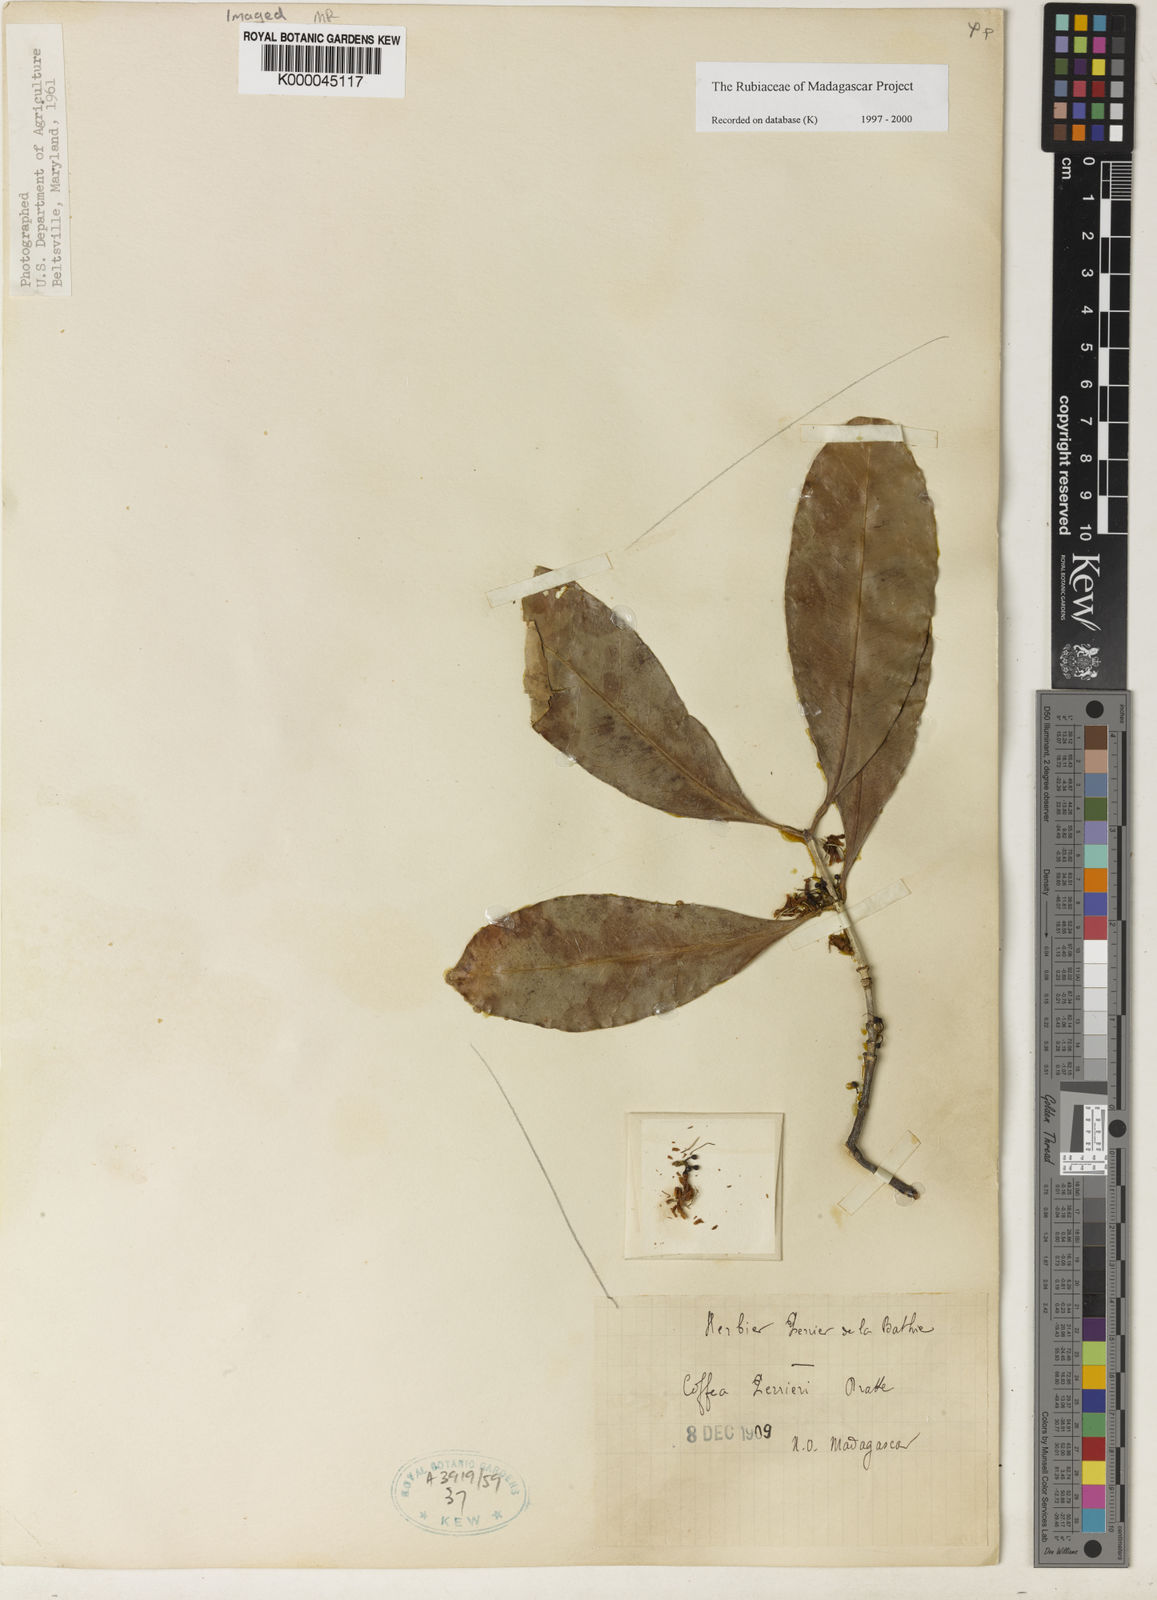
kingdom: Plantae
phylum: Tracheophyta
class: Magnoliopsida
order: Gentianales
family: Rubiaceae
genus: Coffea
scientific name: Coffea
